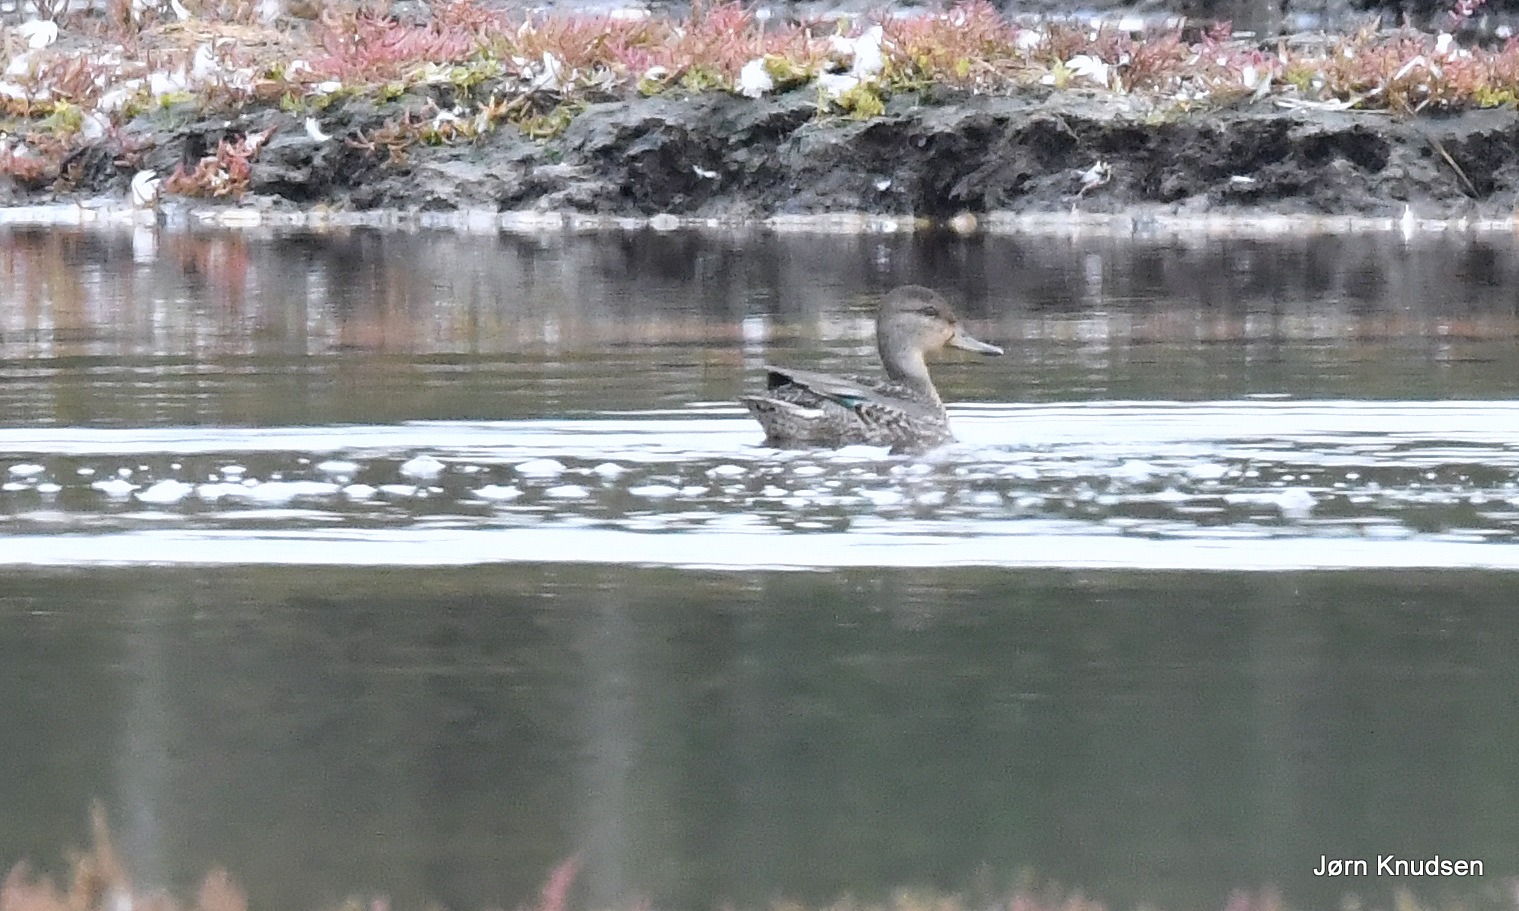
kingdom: Animalia
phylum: Chordata
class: Aves
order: Anseriformes
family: Anatidae
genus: Anas
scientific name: Anas crecca
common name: Krikand
